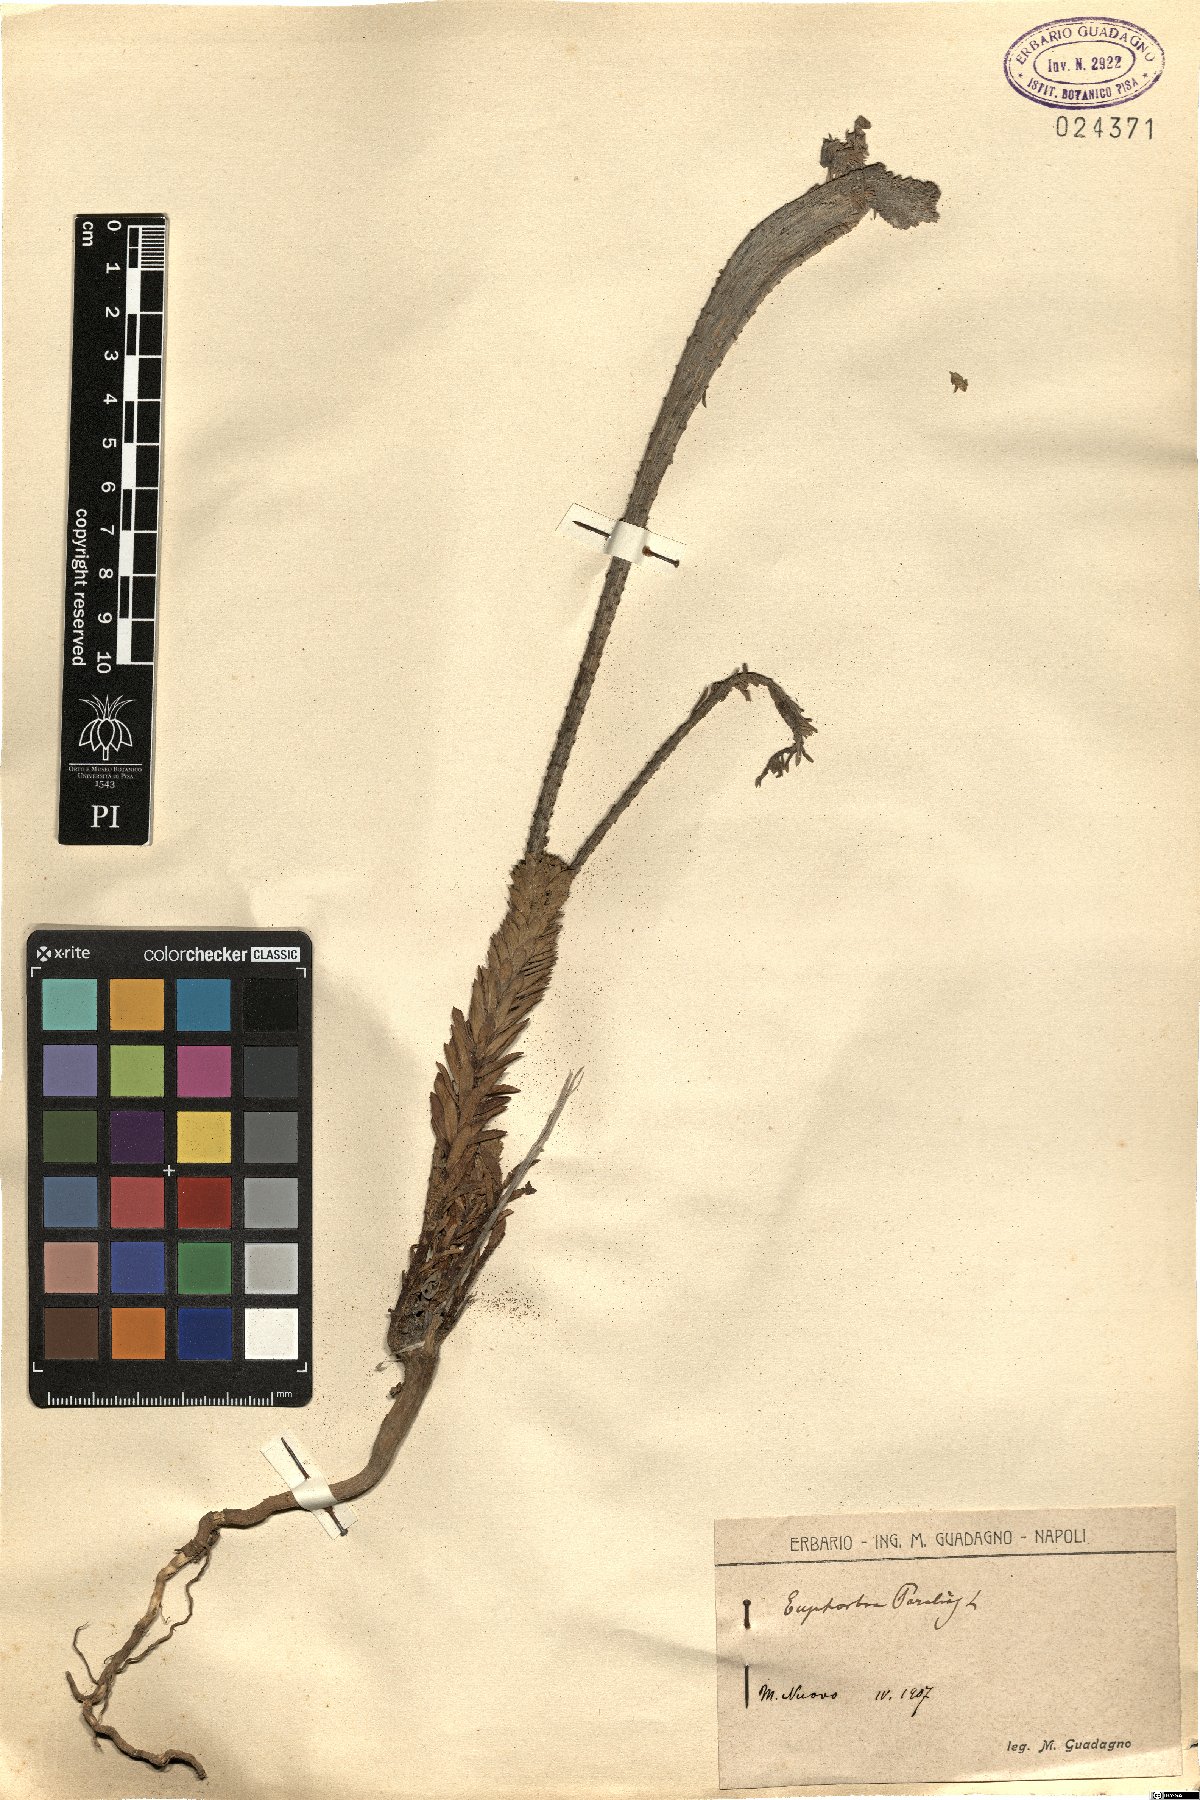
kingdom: Plantae
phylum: Tracheophyta
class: Magnoliopsida
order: Malpighiales
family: Euphorbiaceae
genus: Euphorbia
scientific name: Euphorbia paralias
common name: Sea spurge
